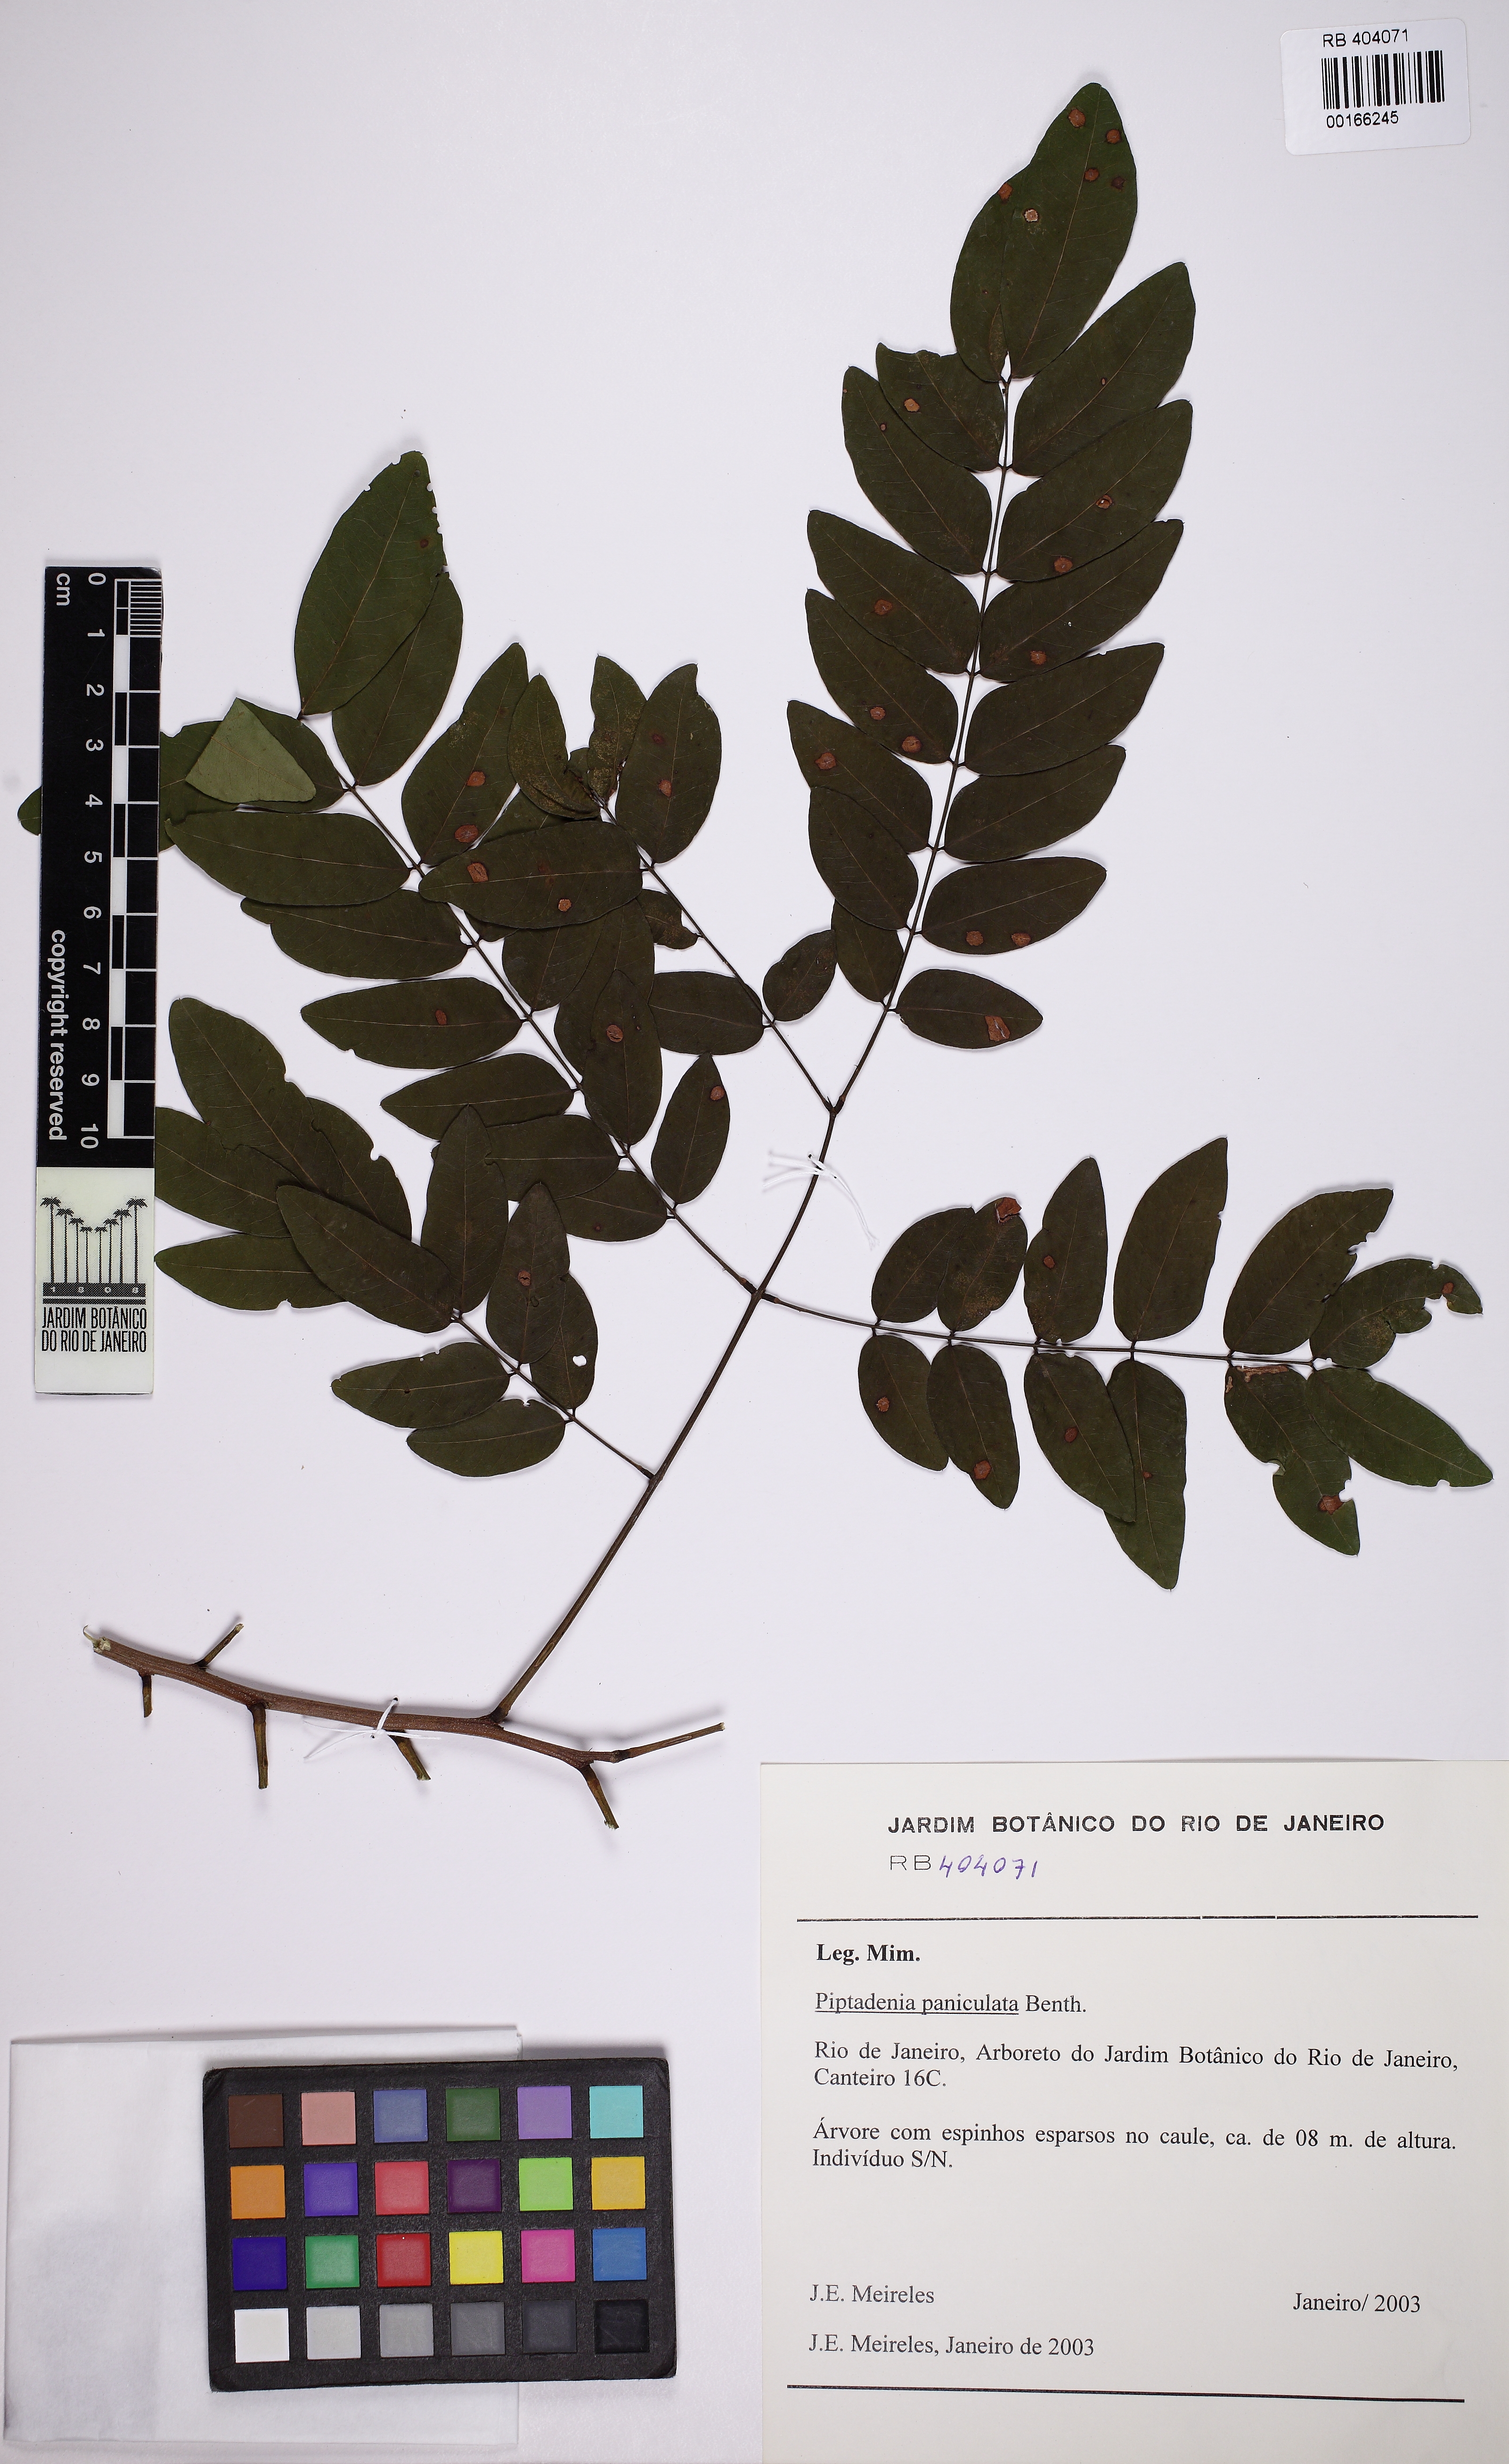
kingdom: Plantae
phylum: Tracheophyta
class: Magnoliopsida
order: Fabales
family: Fabaceae
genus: Piptadenia
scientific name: Piptadenia paniculata
